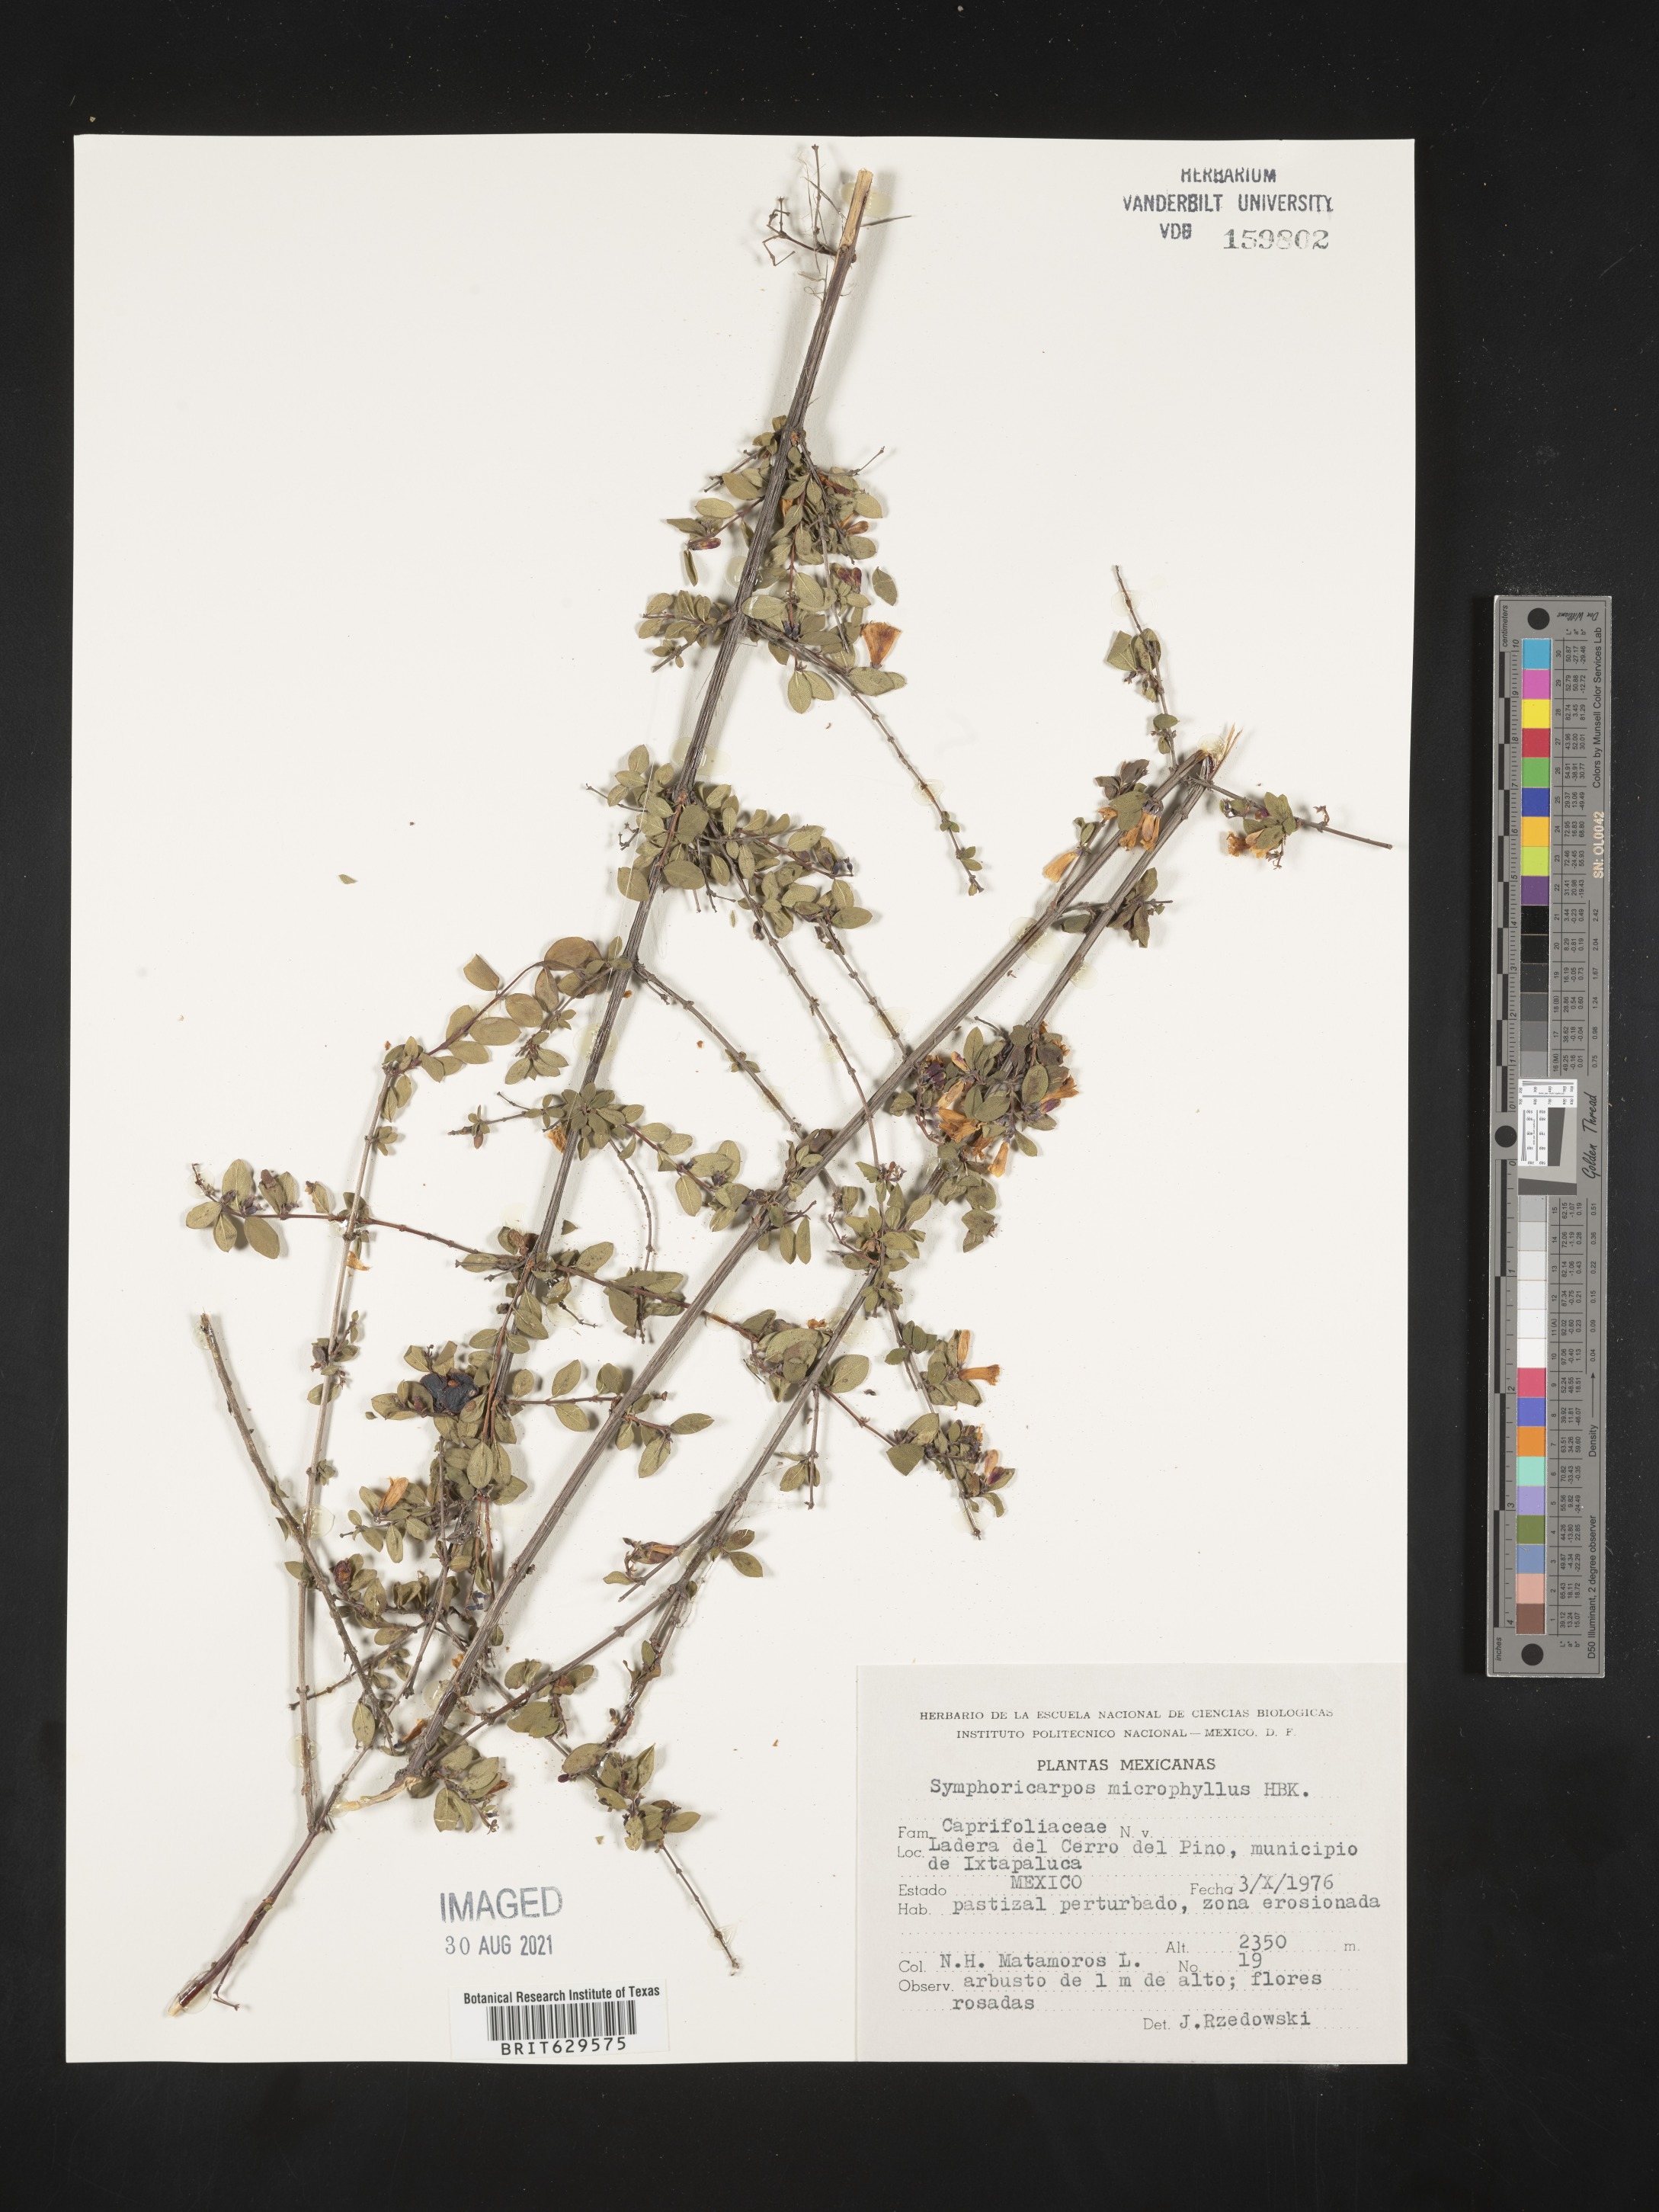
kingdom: Plantae
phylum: Tracheophyta
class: Magnoliopsida
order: Dipsacales
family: Caprifoliaceae
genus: Symphoricarpos
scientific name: Symphoricarpos
